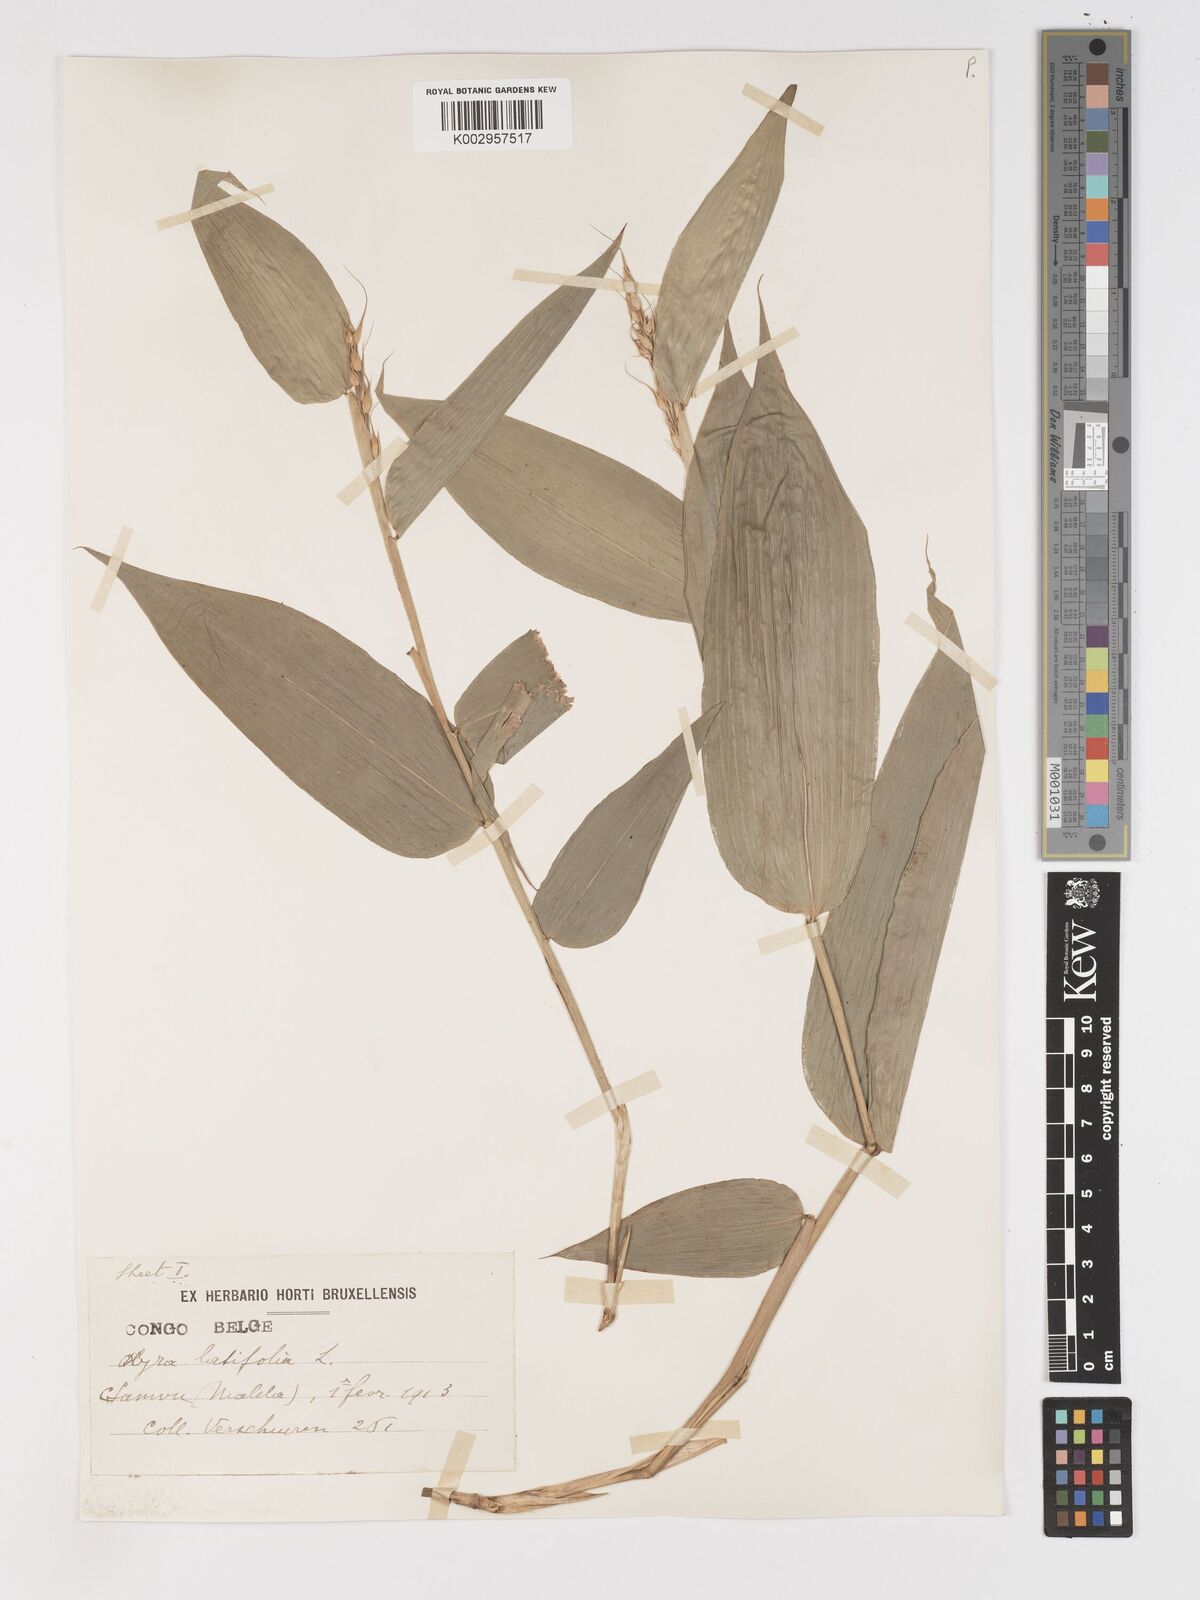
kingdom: Plantae
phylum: Tracheophyta
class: Liliopsida
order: Poales
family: Poaceae
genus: Olyra
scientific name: Olyra latifolia
